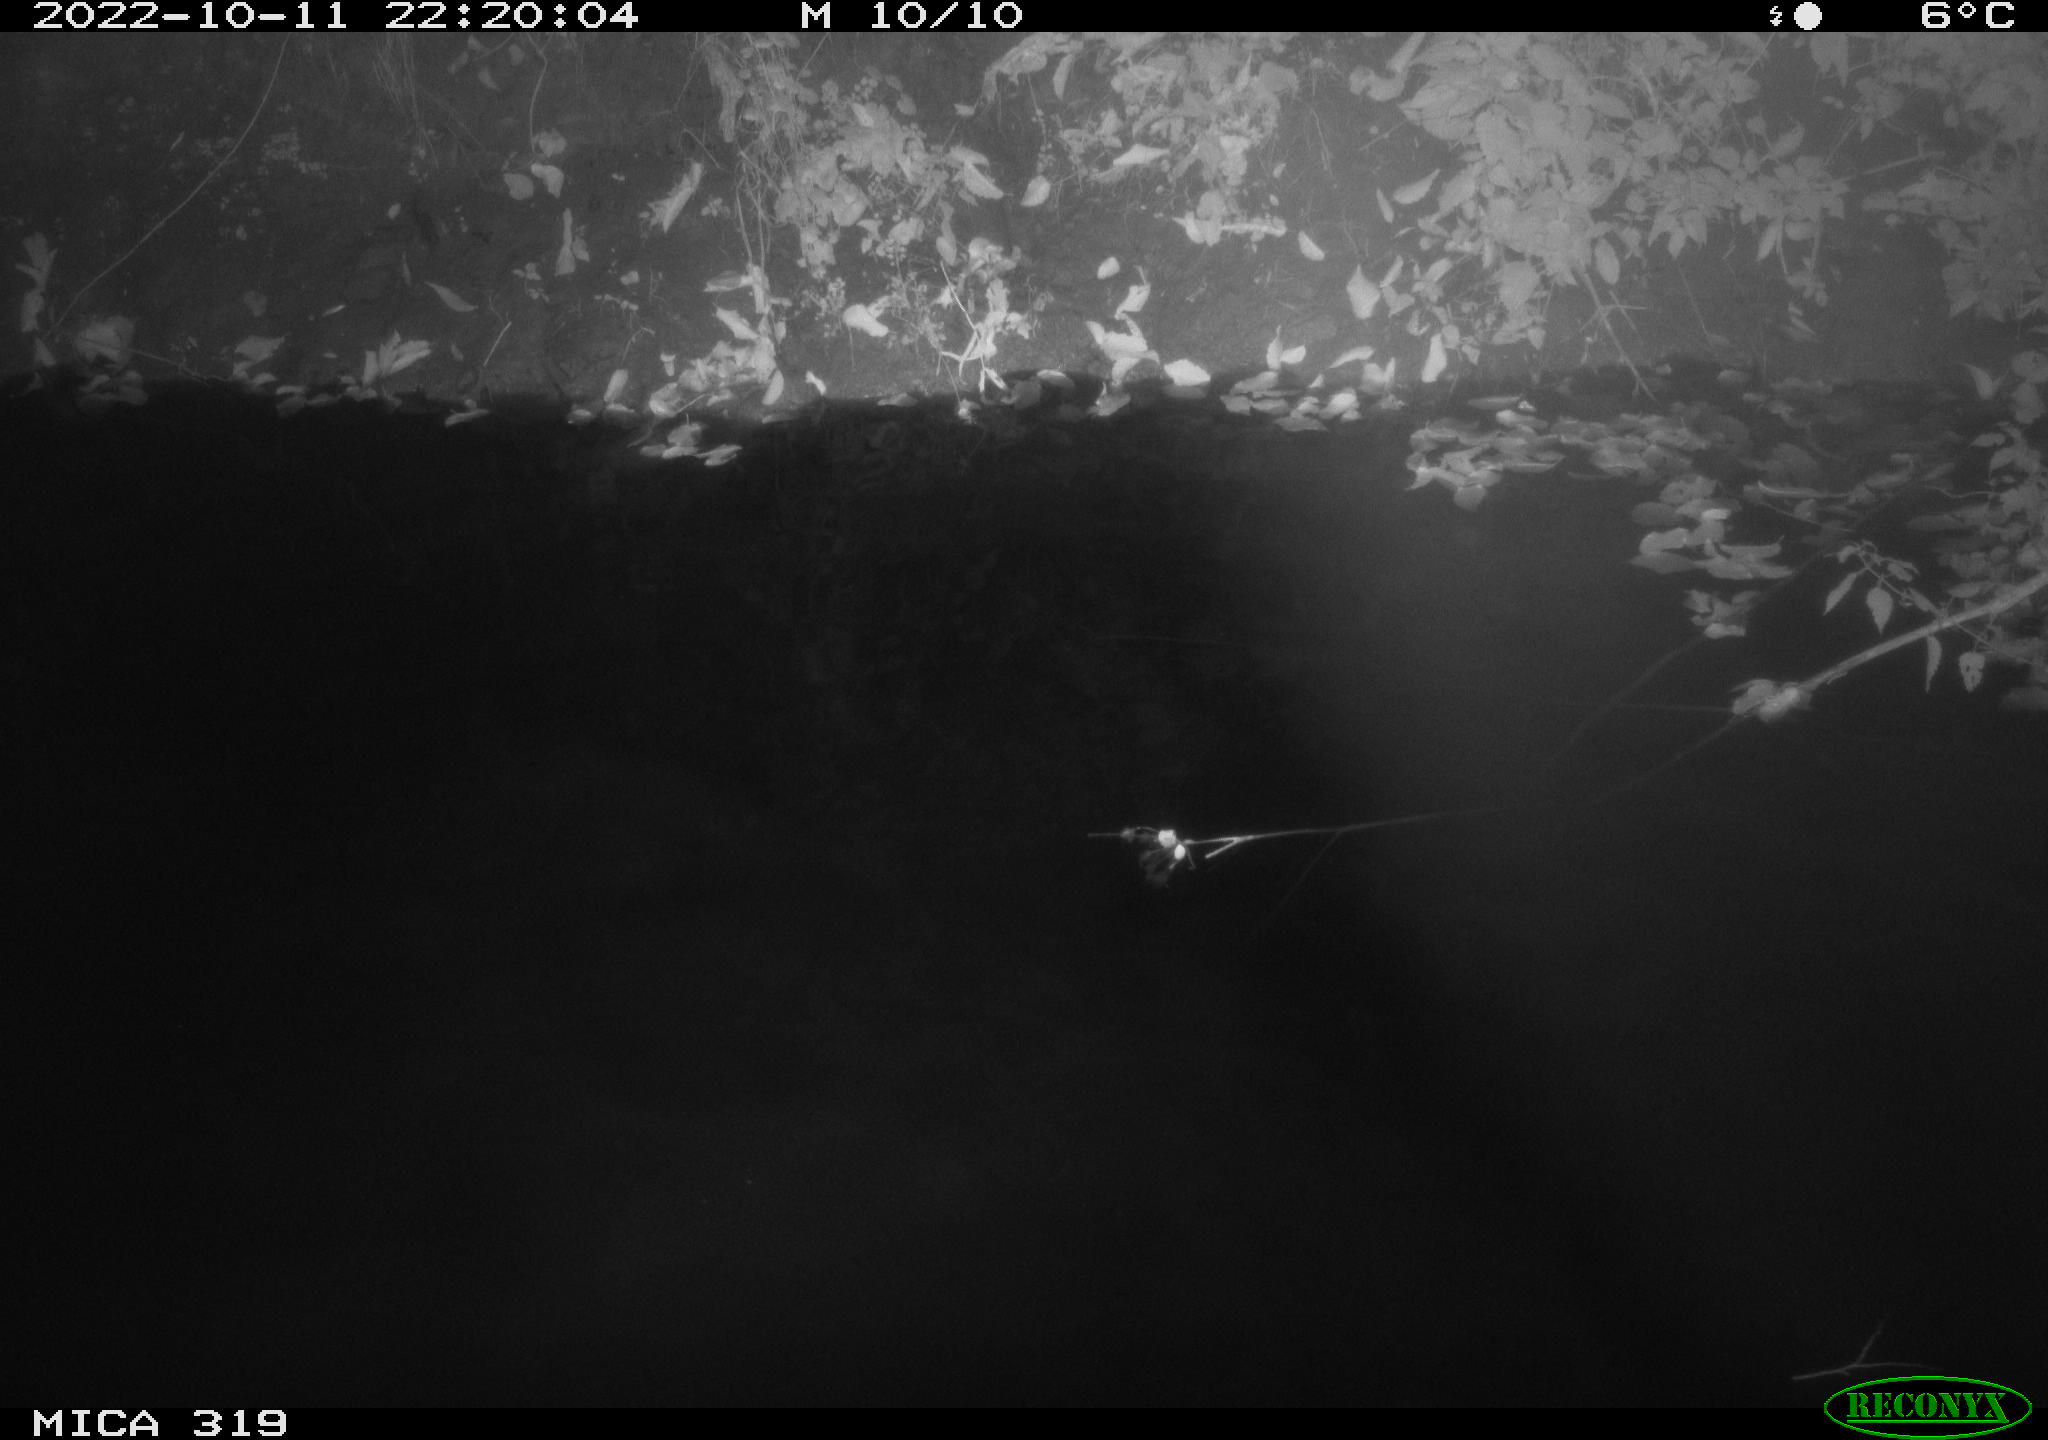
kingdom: Animalia
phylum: Chordata
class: Aves
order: Anseriformes
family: Anatidae
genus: Anas
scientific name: Anas
